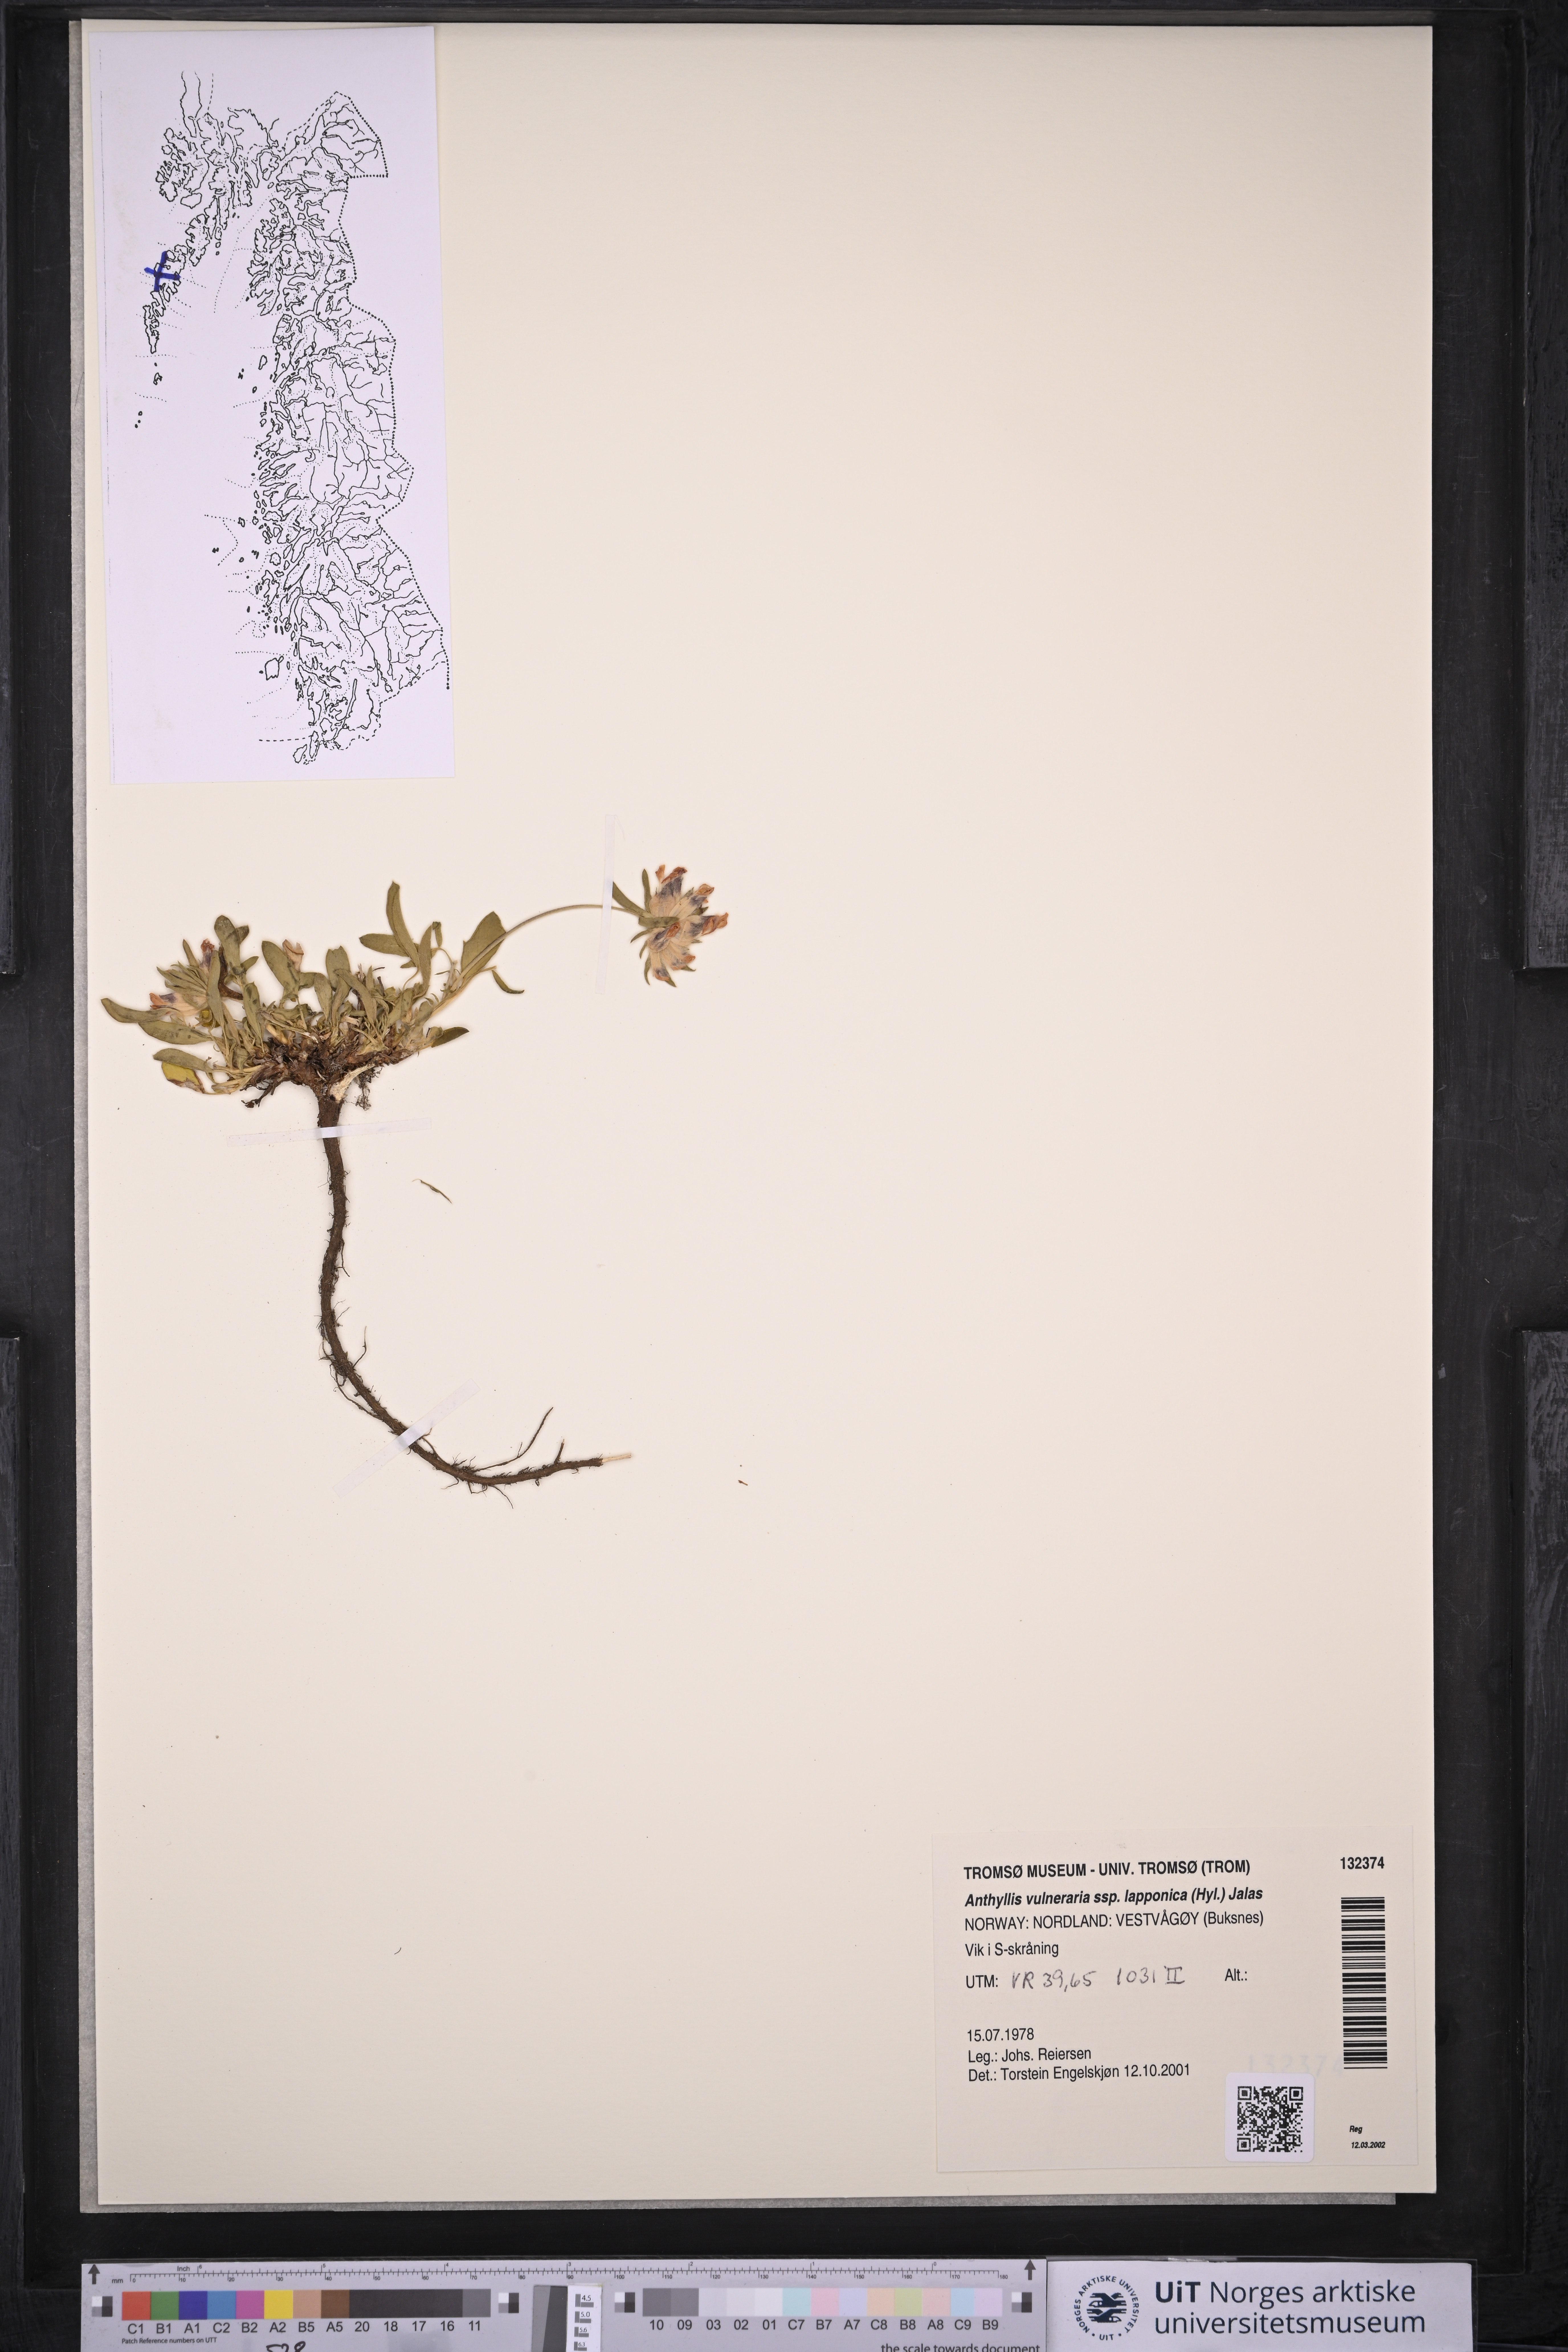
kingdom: Plantae
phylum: Tracheophyta
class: Magnoliopsida
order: Fabales
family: Fabaceae
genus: Anthyllis
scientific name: Anthyllis vulneraria
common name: Kidney vetch
